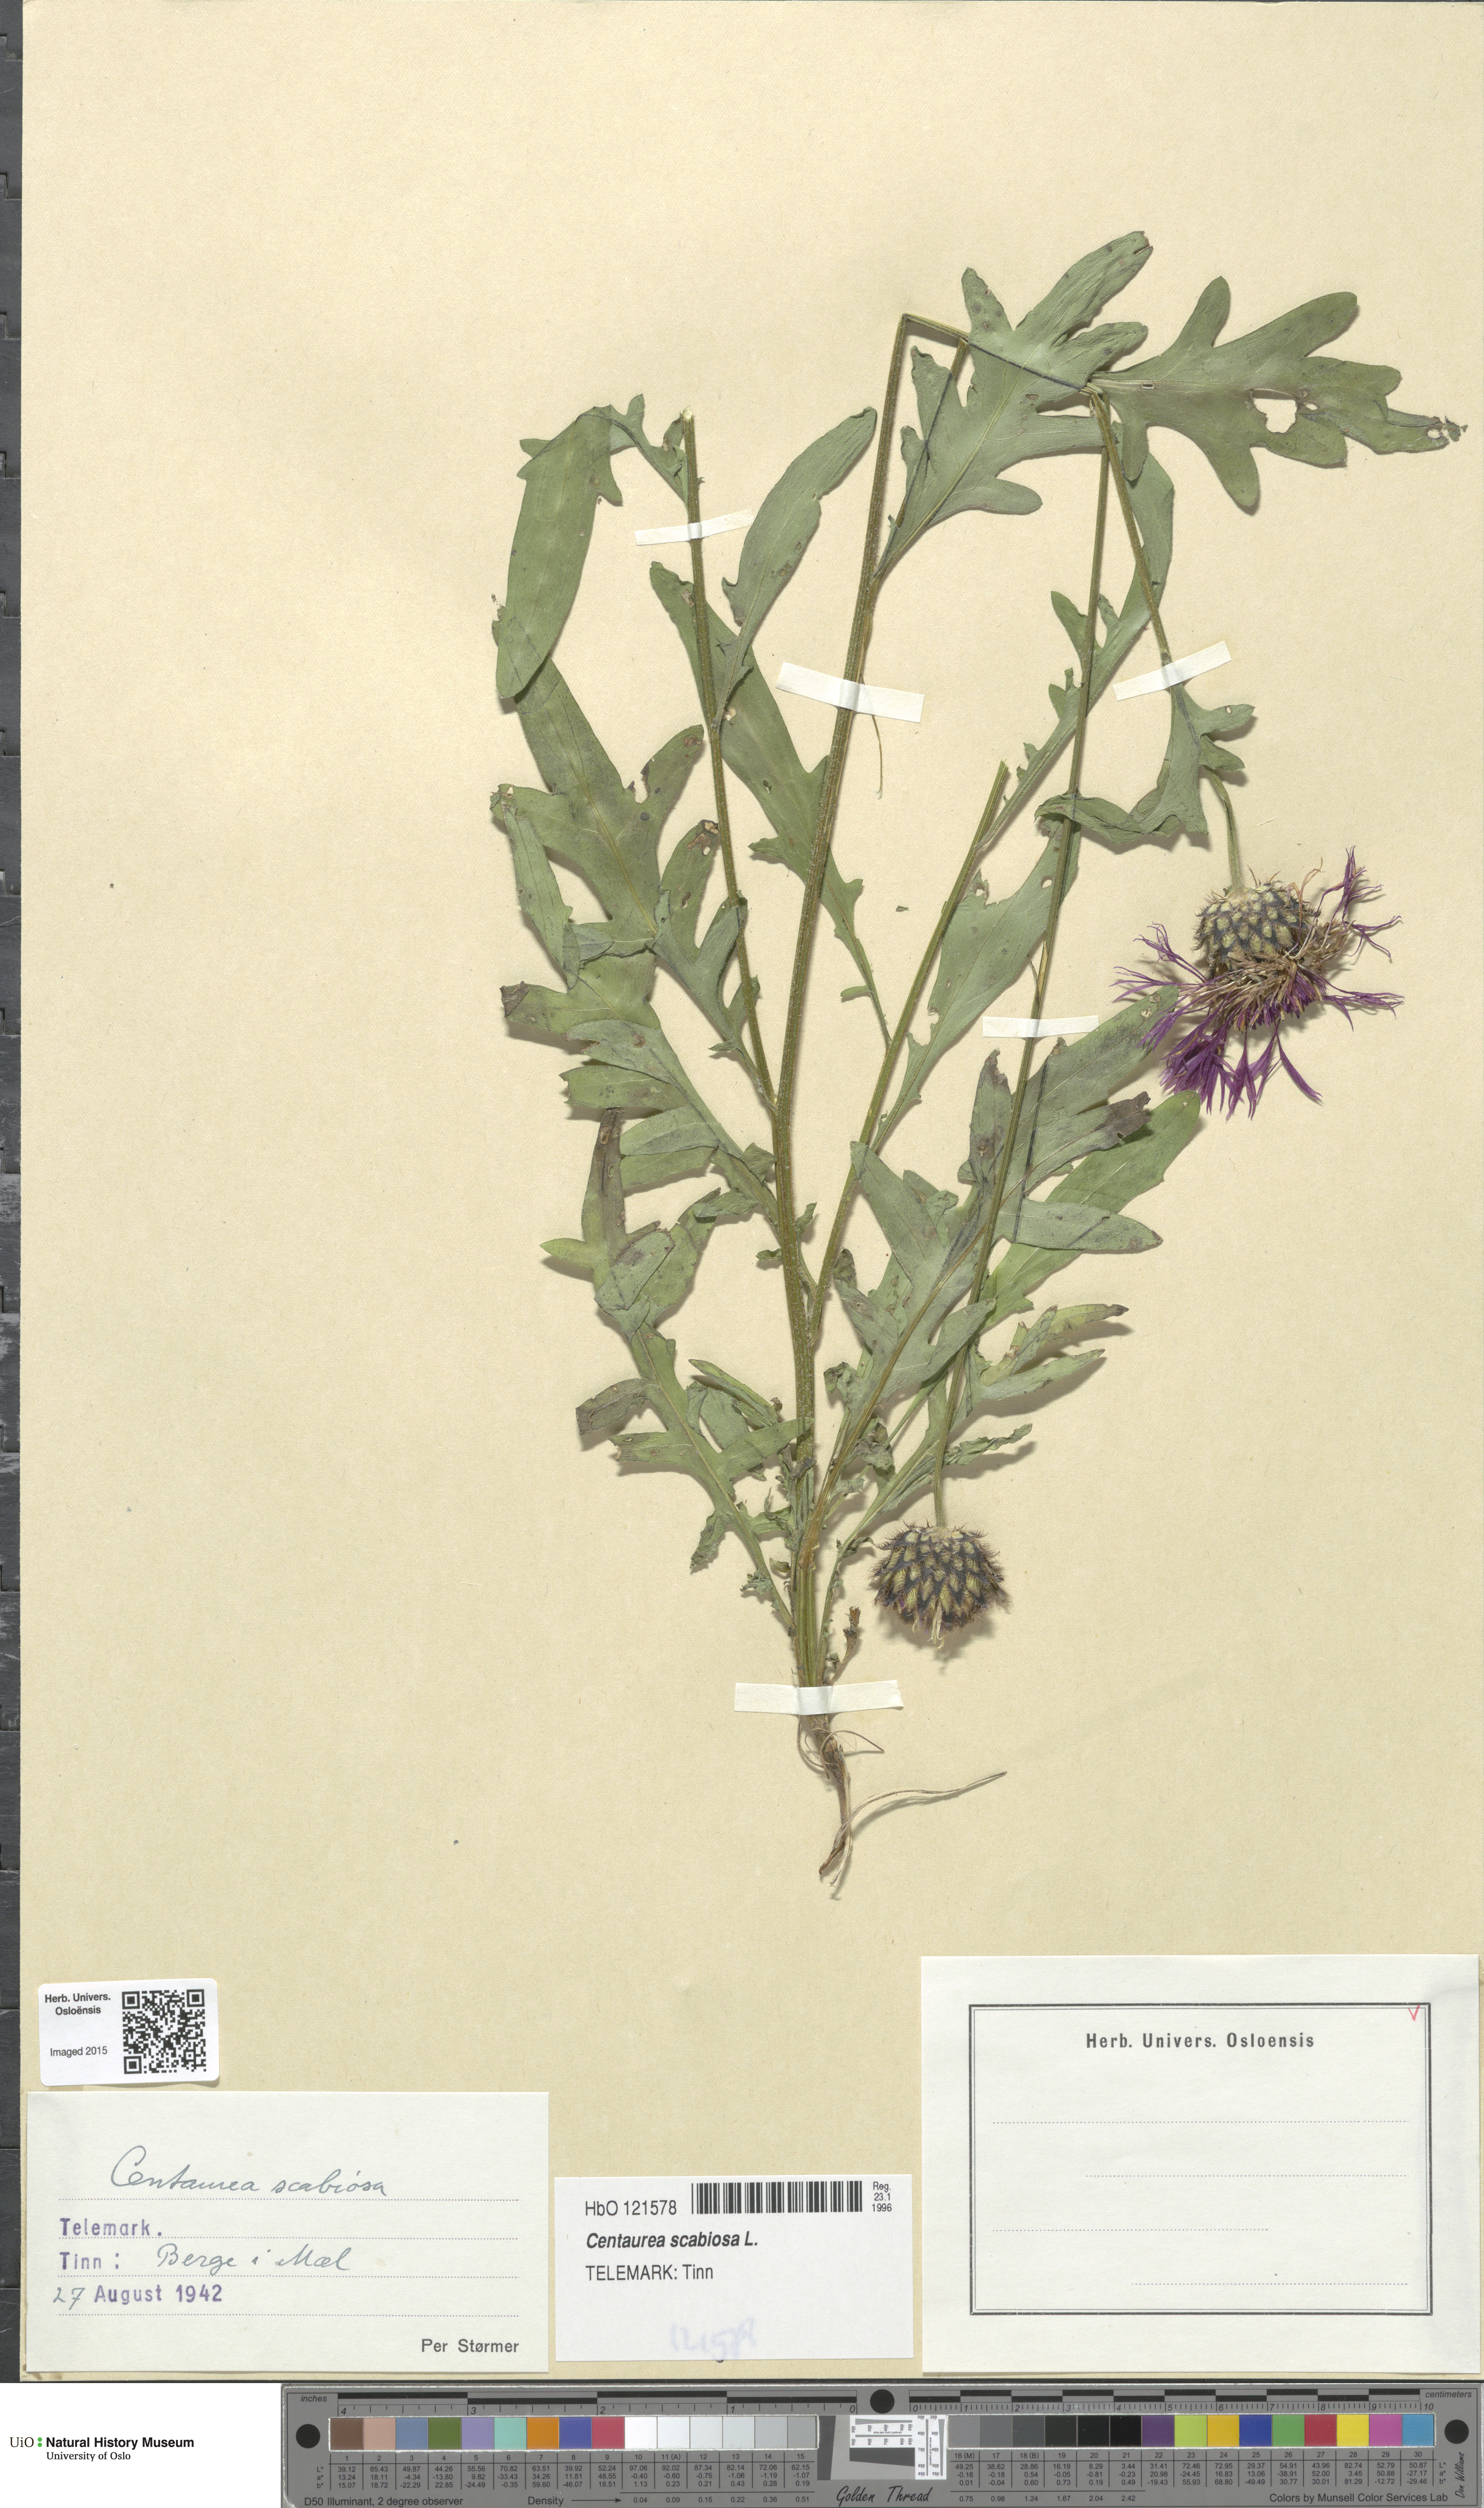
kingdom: Plantae
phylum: Tracheophyta
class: Magnoliopsida
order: Asterales
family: Asteraceae
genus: Centaurea
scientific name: Centaurea scabiosa
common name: Greater knapweed
